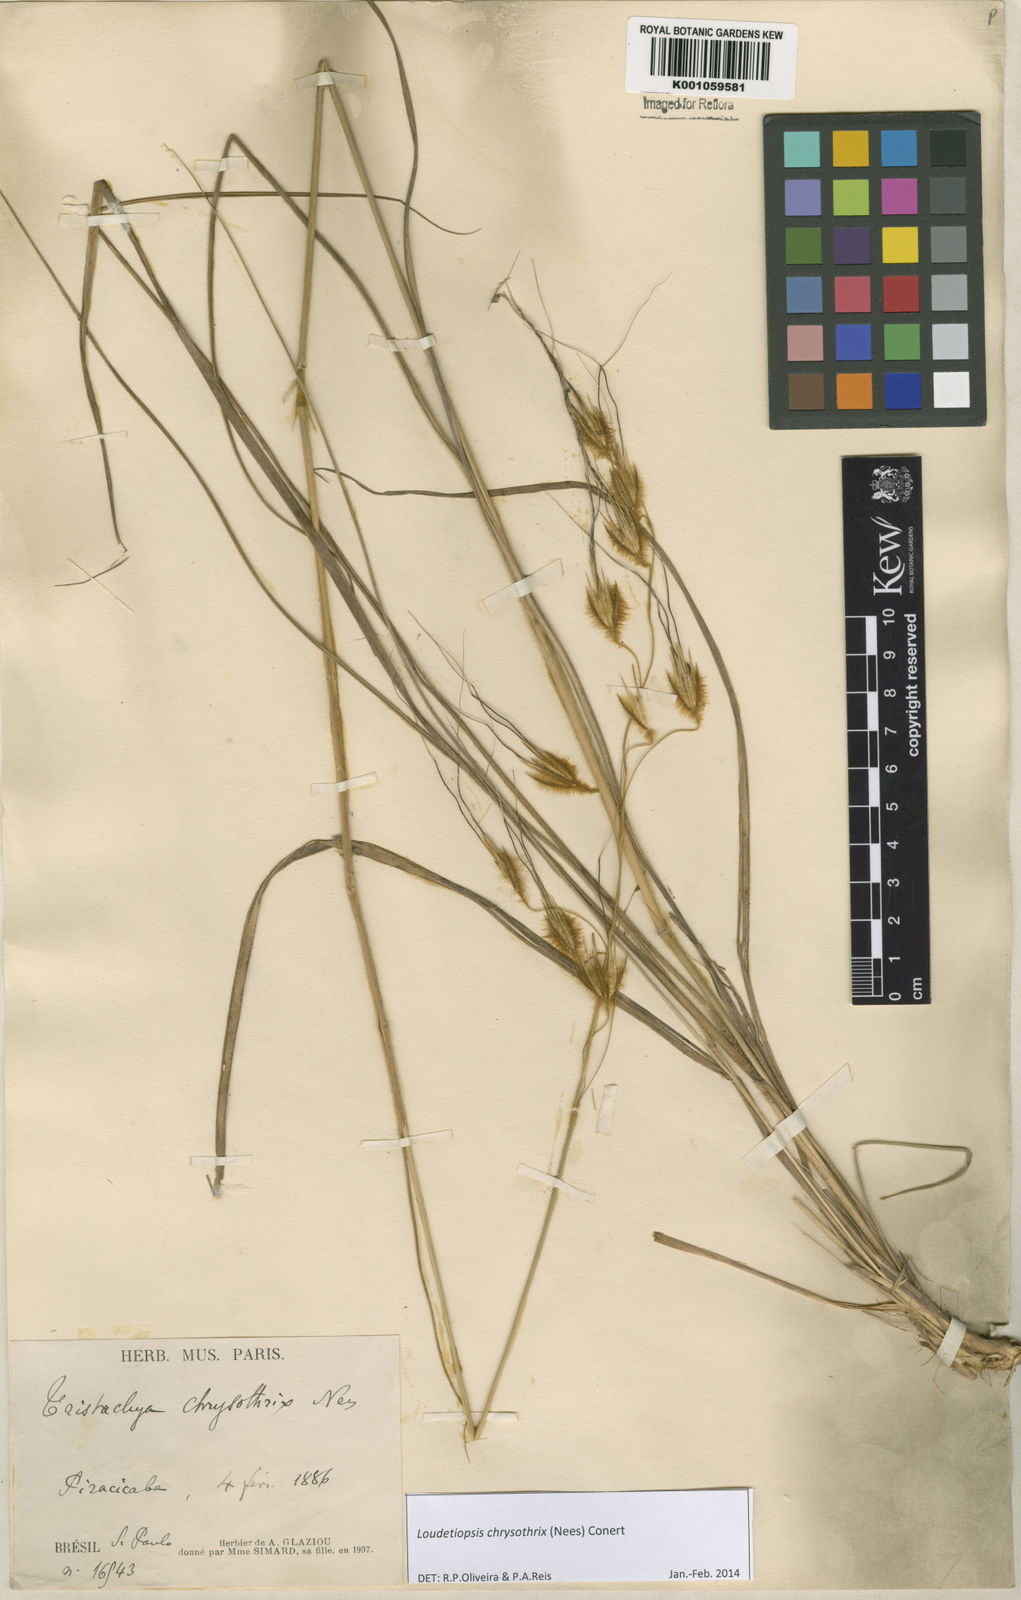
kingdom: Plantae
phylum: Tracheophyta
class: Liliopsida
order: Poales
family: Poaceae
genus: Loudetiopsis
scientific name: Loudetiopsis chrysothrix
